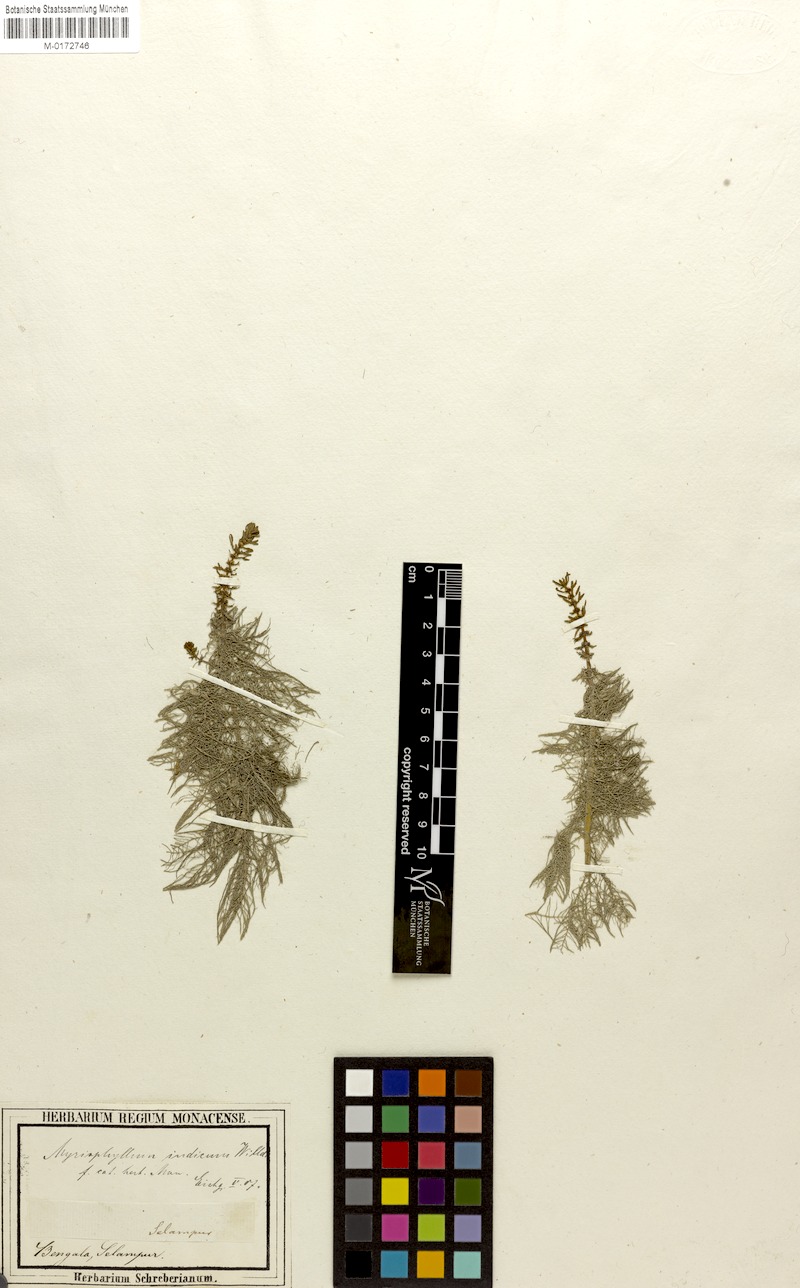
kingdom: Plantae
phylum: Tracheophyta
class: Magnoliopsida
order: Saxifragales
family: Haloragaceae
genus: Myriophyllum
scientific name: Myriophyllum indicum
